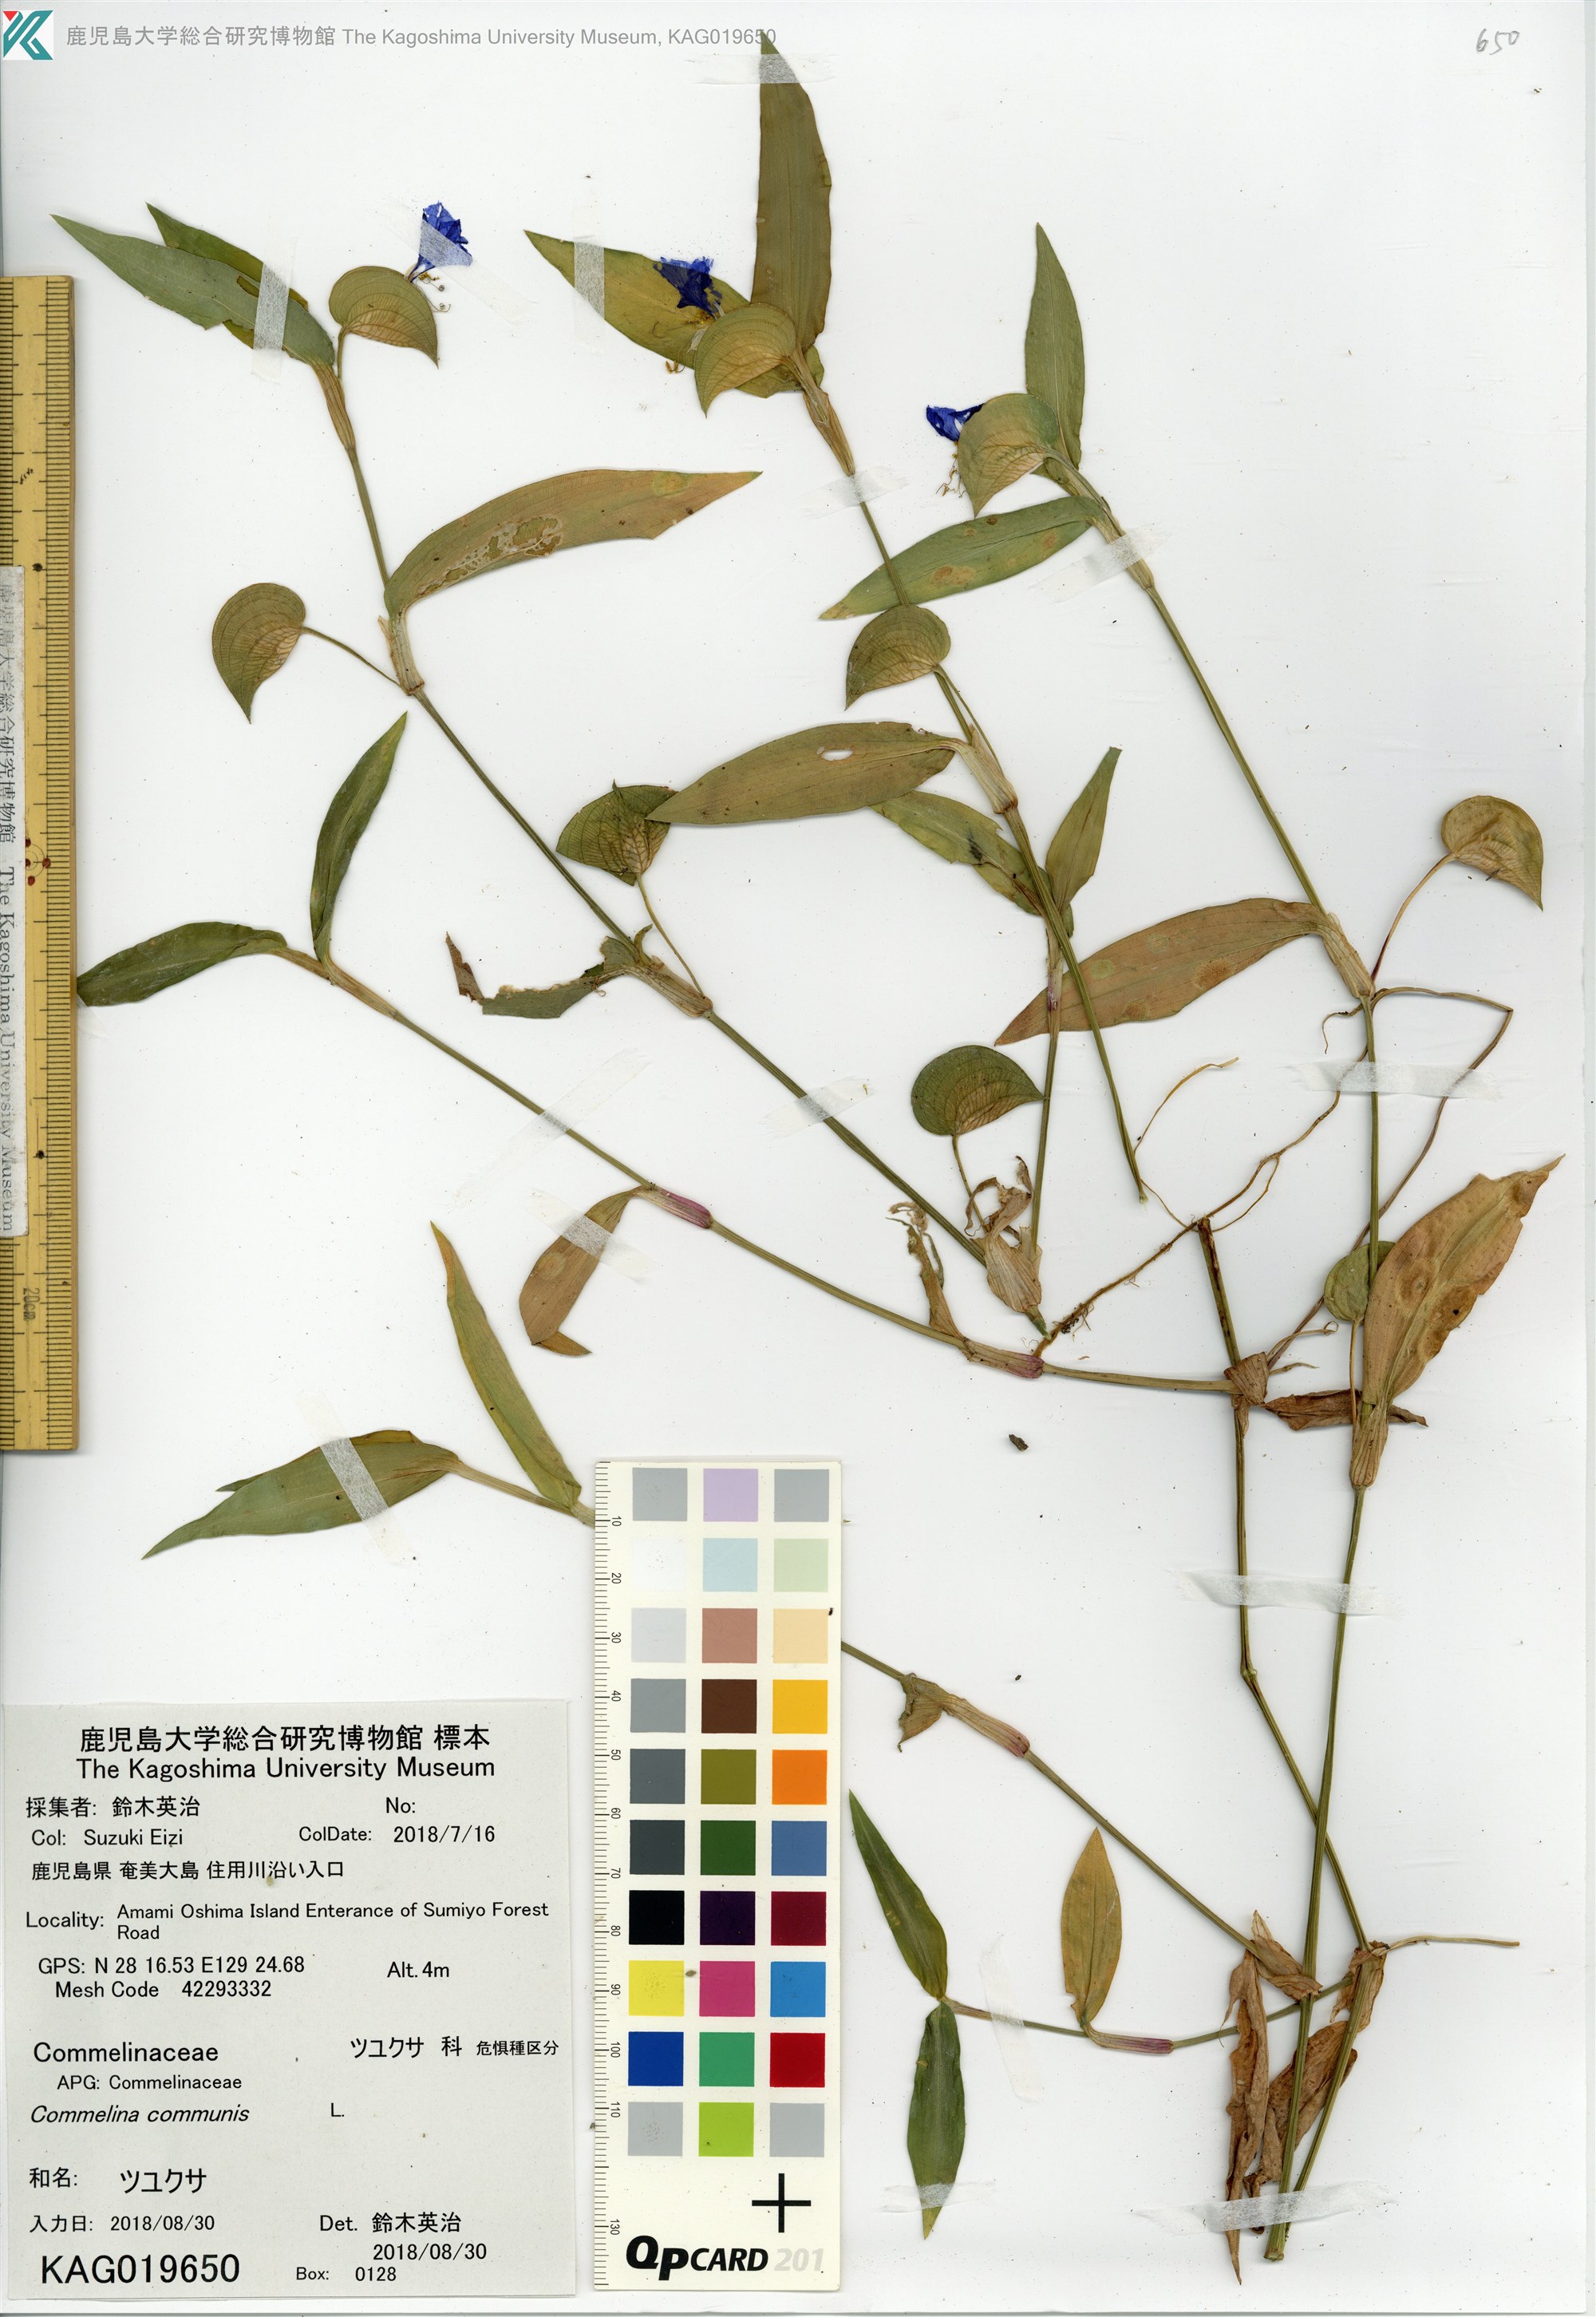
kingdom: Plantae
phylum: Tracheophyta
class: Liliopsida
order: Commelinales
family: Commelinaceae
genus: Commelina
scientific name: Commelina communis
